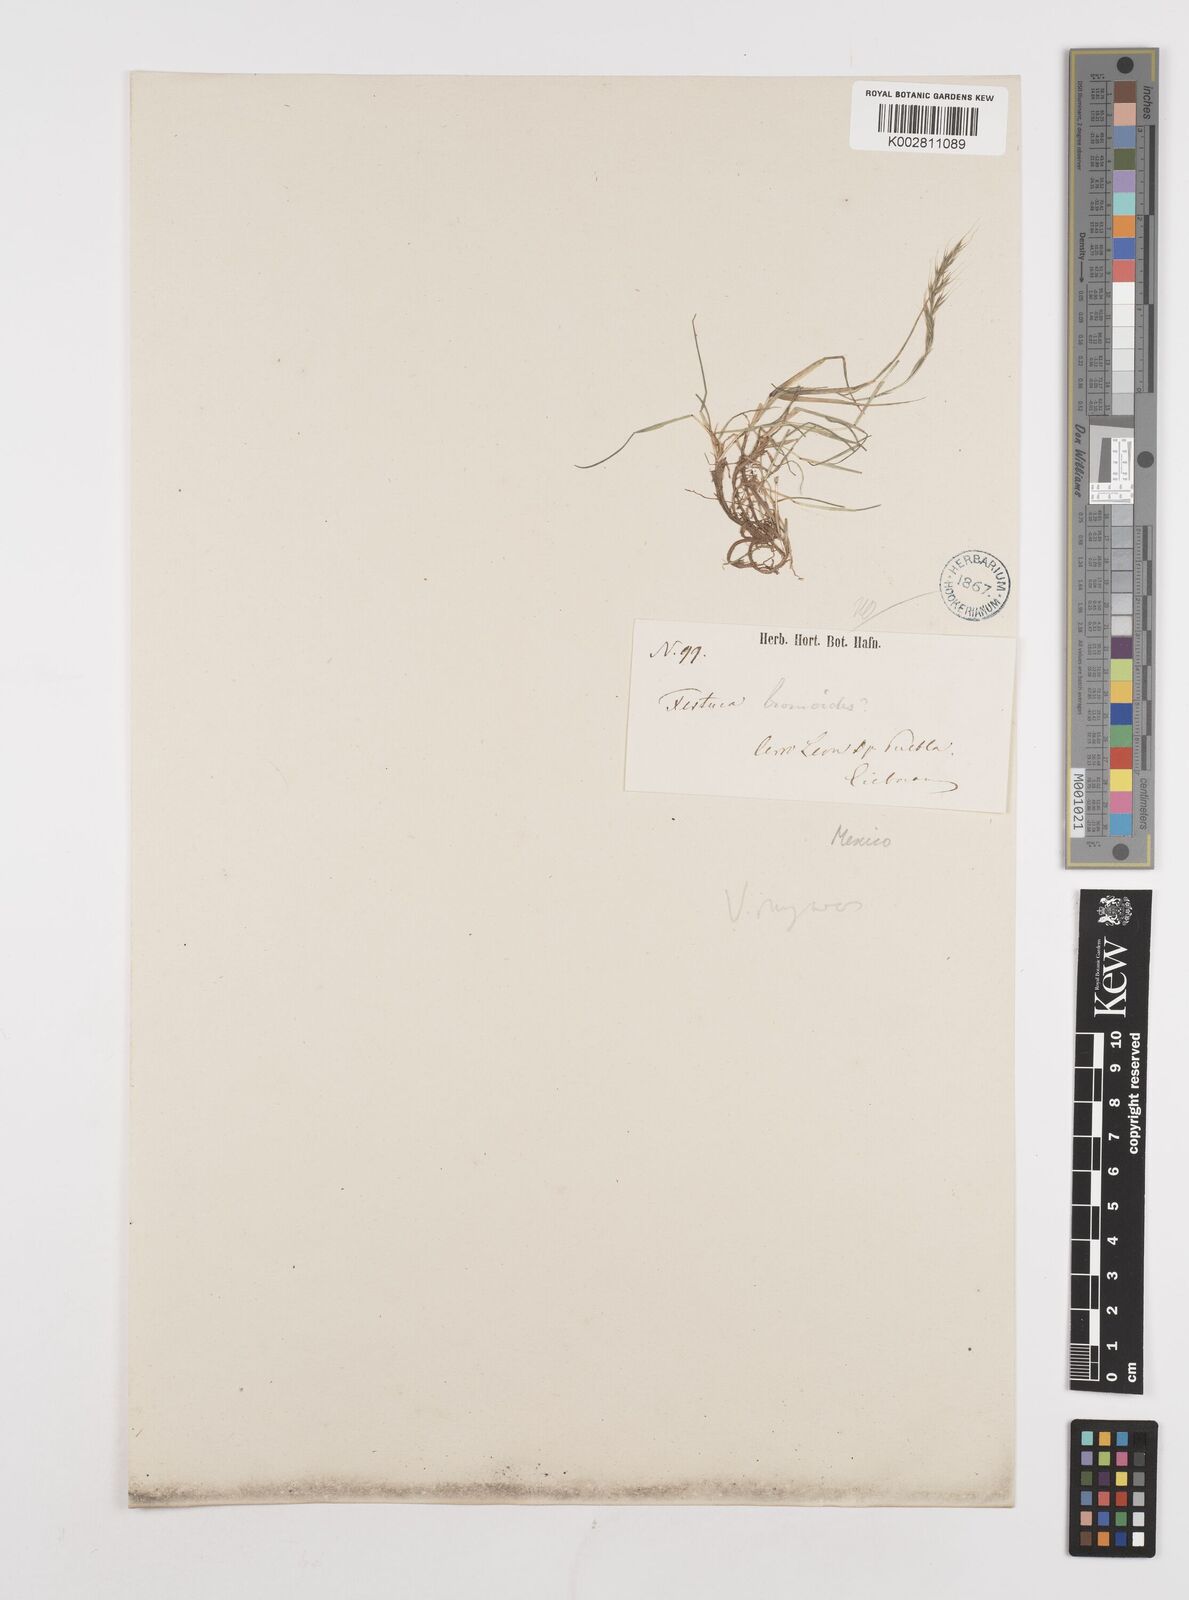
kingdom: Plantae
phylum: Tracheophyta
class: Liliopsida
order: Poales
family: Poaceae
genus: Festuca
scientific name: Festuca myuros
